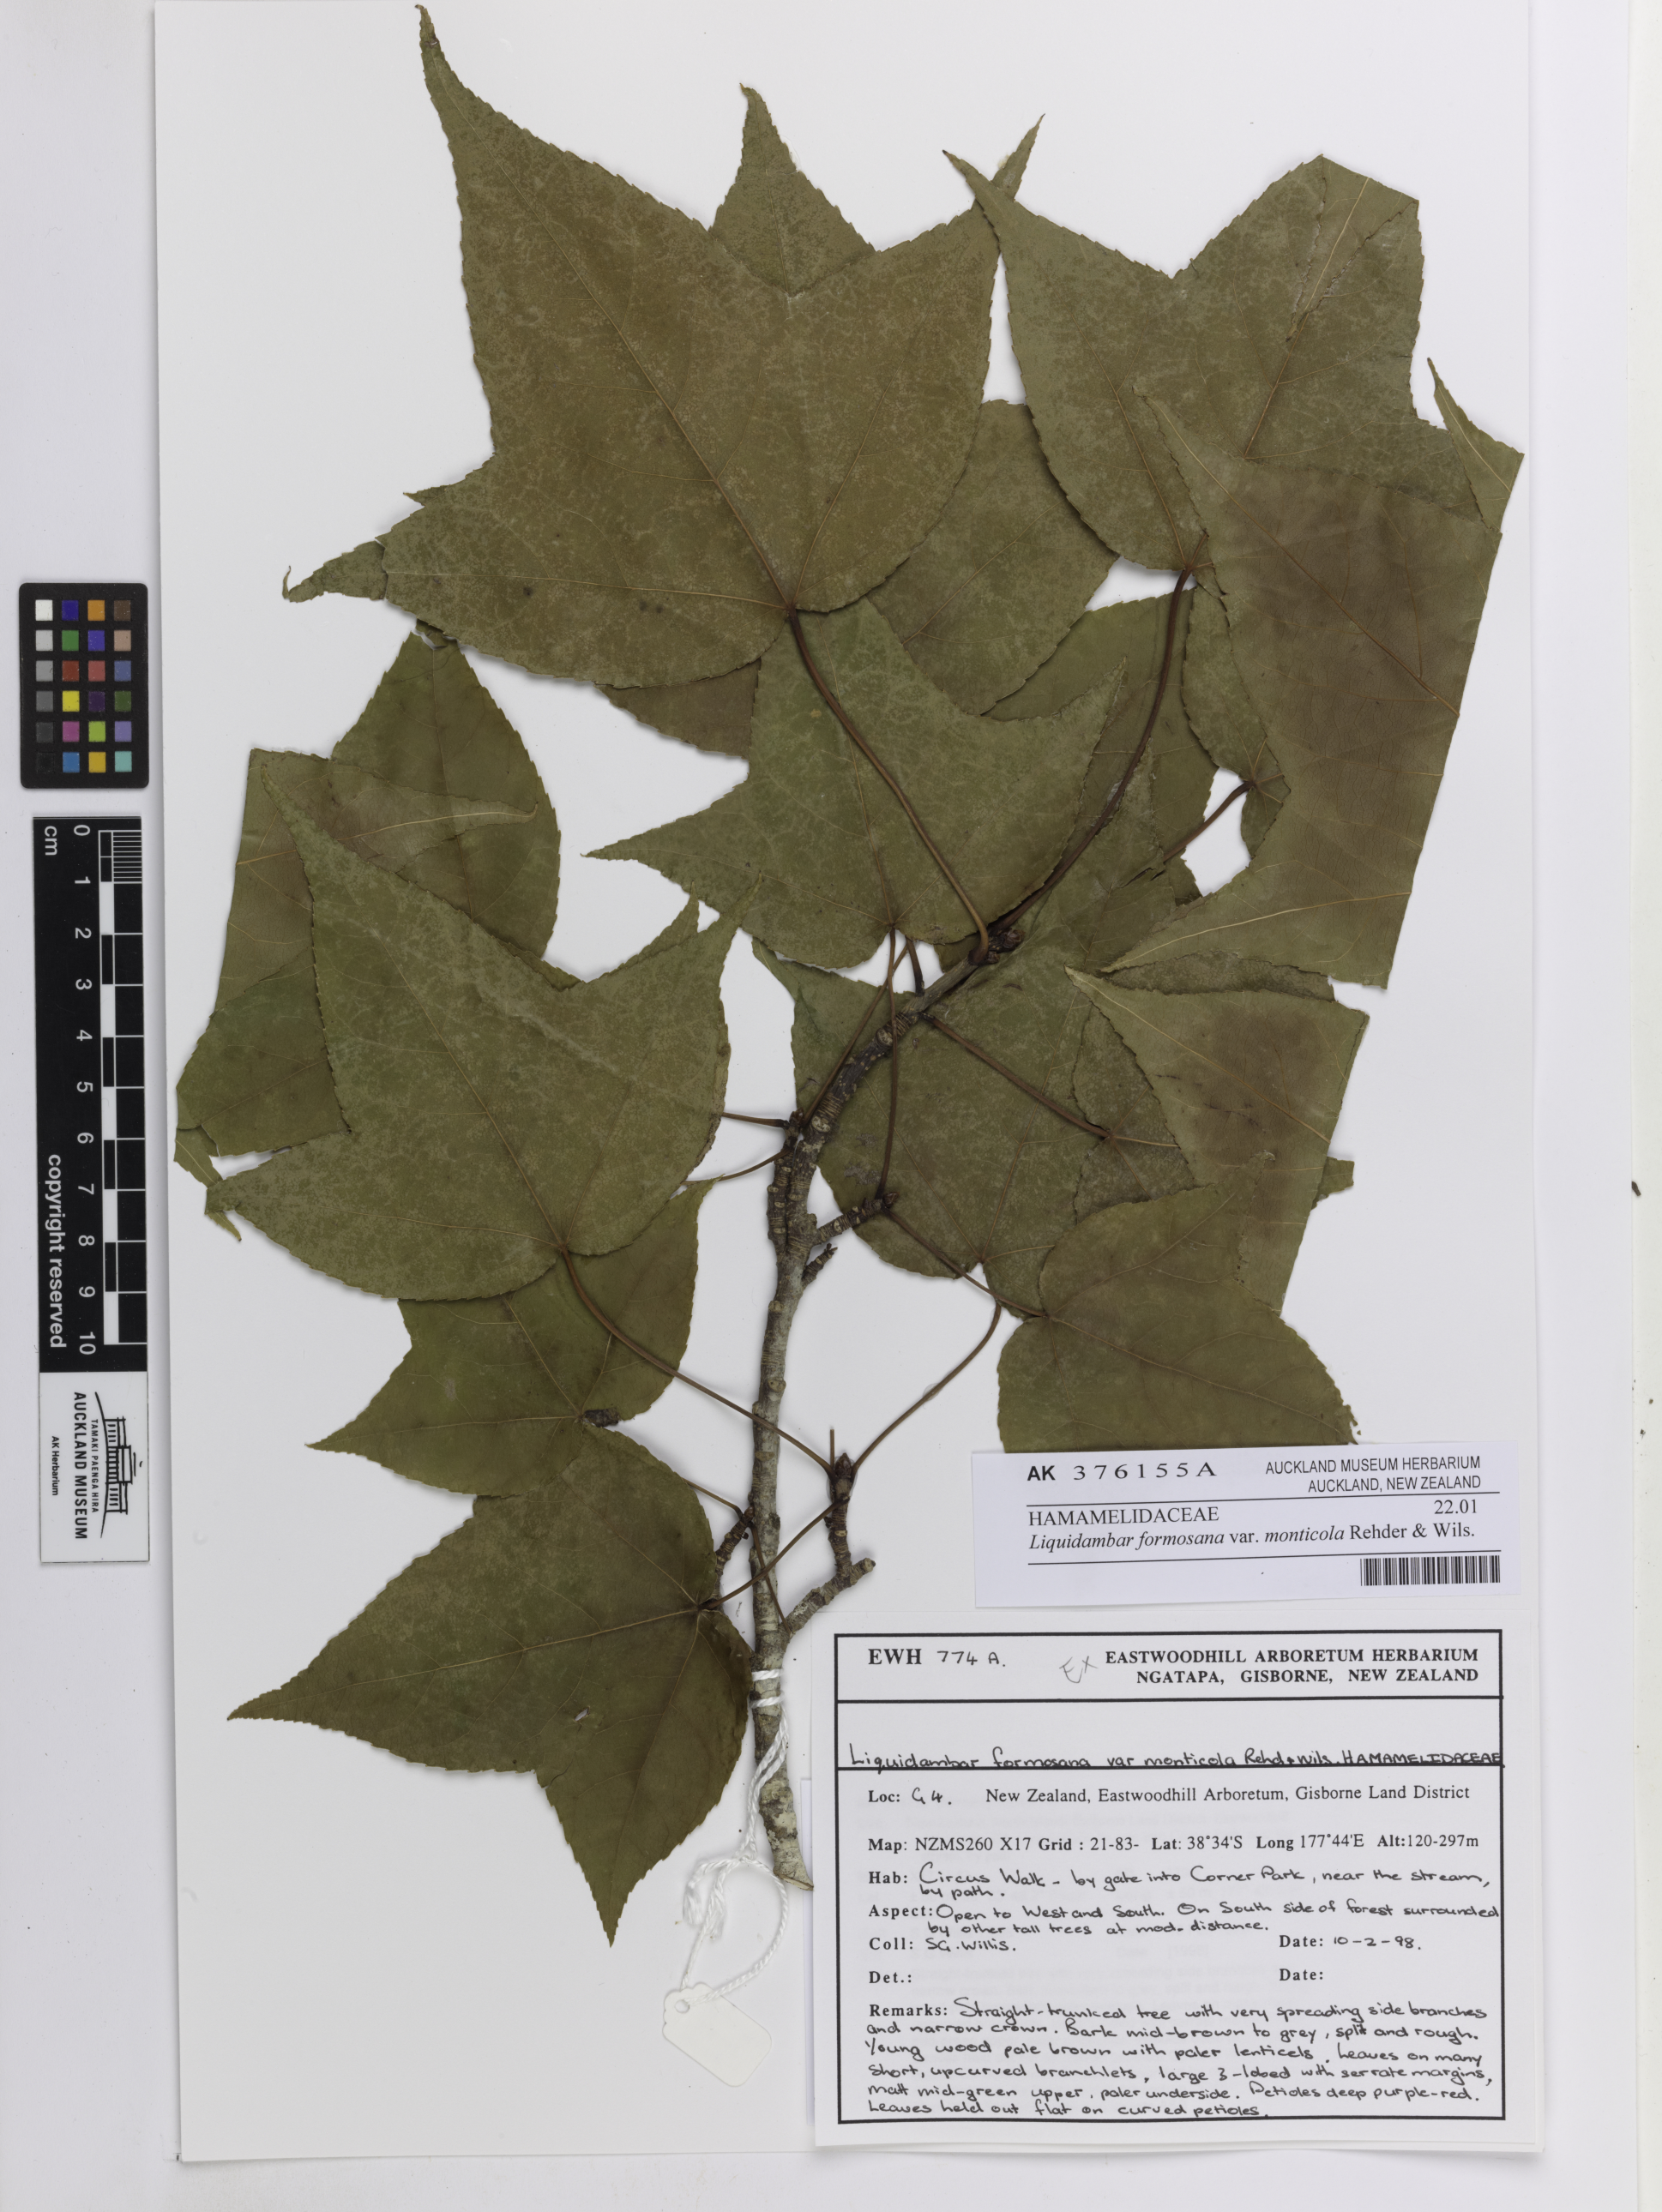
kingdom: Plantae
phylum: Tracheophyta
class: Magnoliopsida
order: Saxifragales
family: Altingiaceae
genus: Liquidambar
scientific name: Liquidambar formosana
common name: Chinese sweet gum
